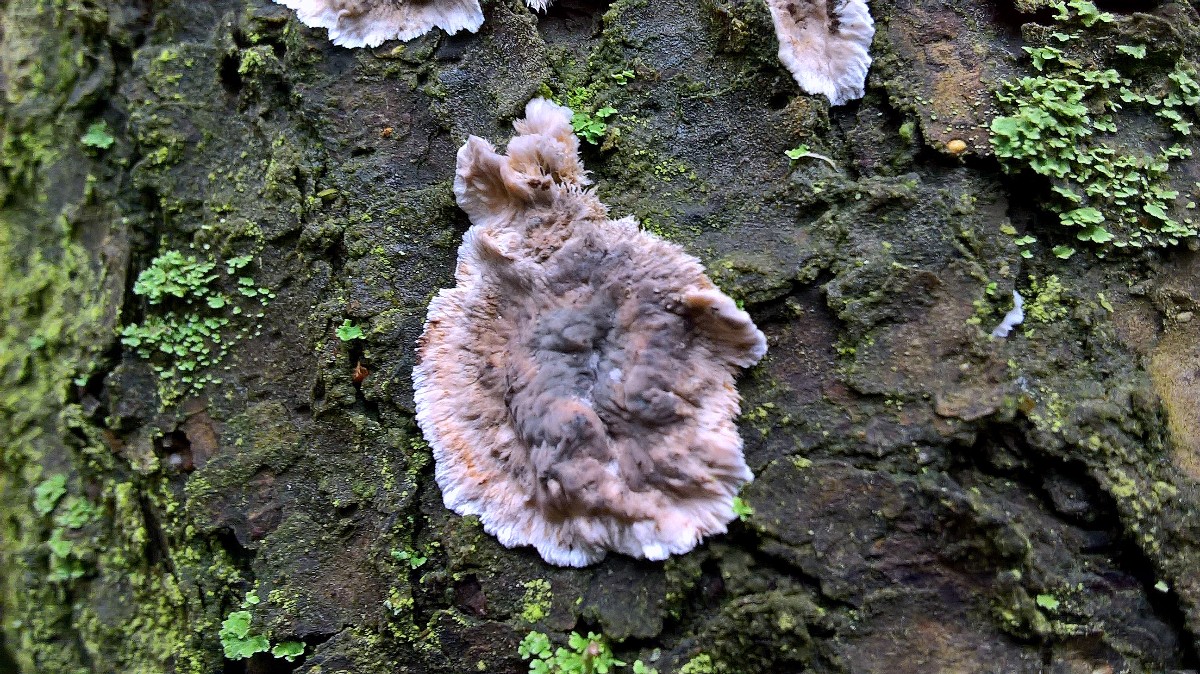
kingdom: Fungi
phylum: Basidiomycota
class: Agaricomycetes
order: Russulales
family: Stereaceae
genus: Stereum
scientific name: Stereum sanguinolentum
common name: blødende lædersvamp
